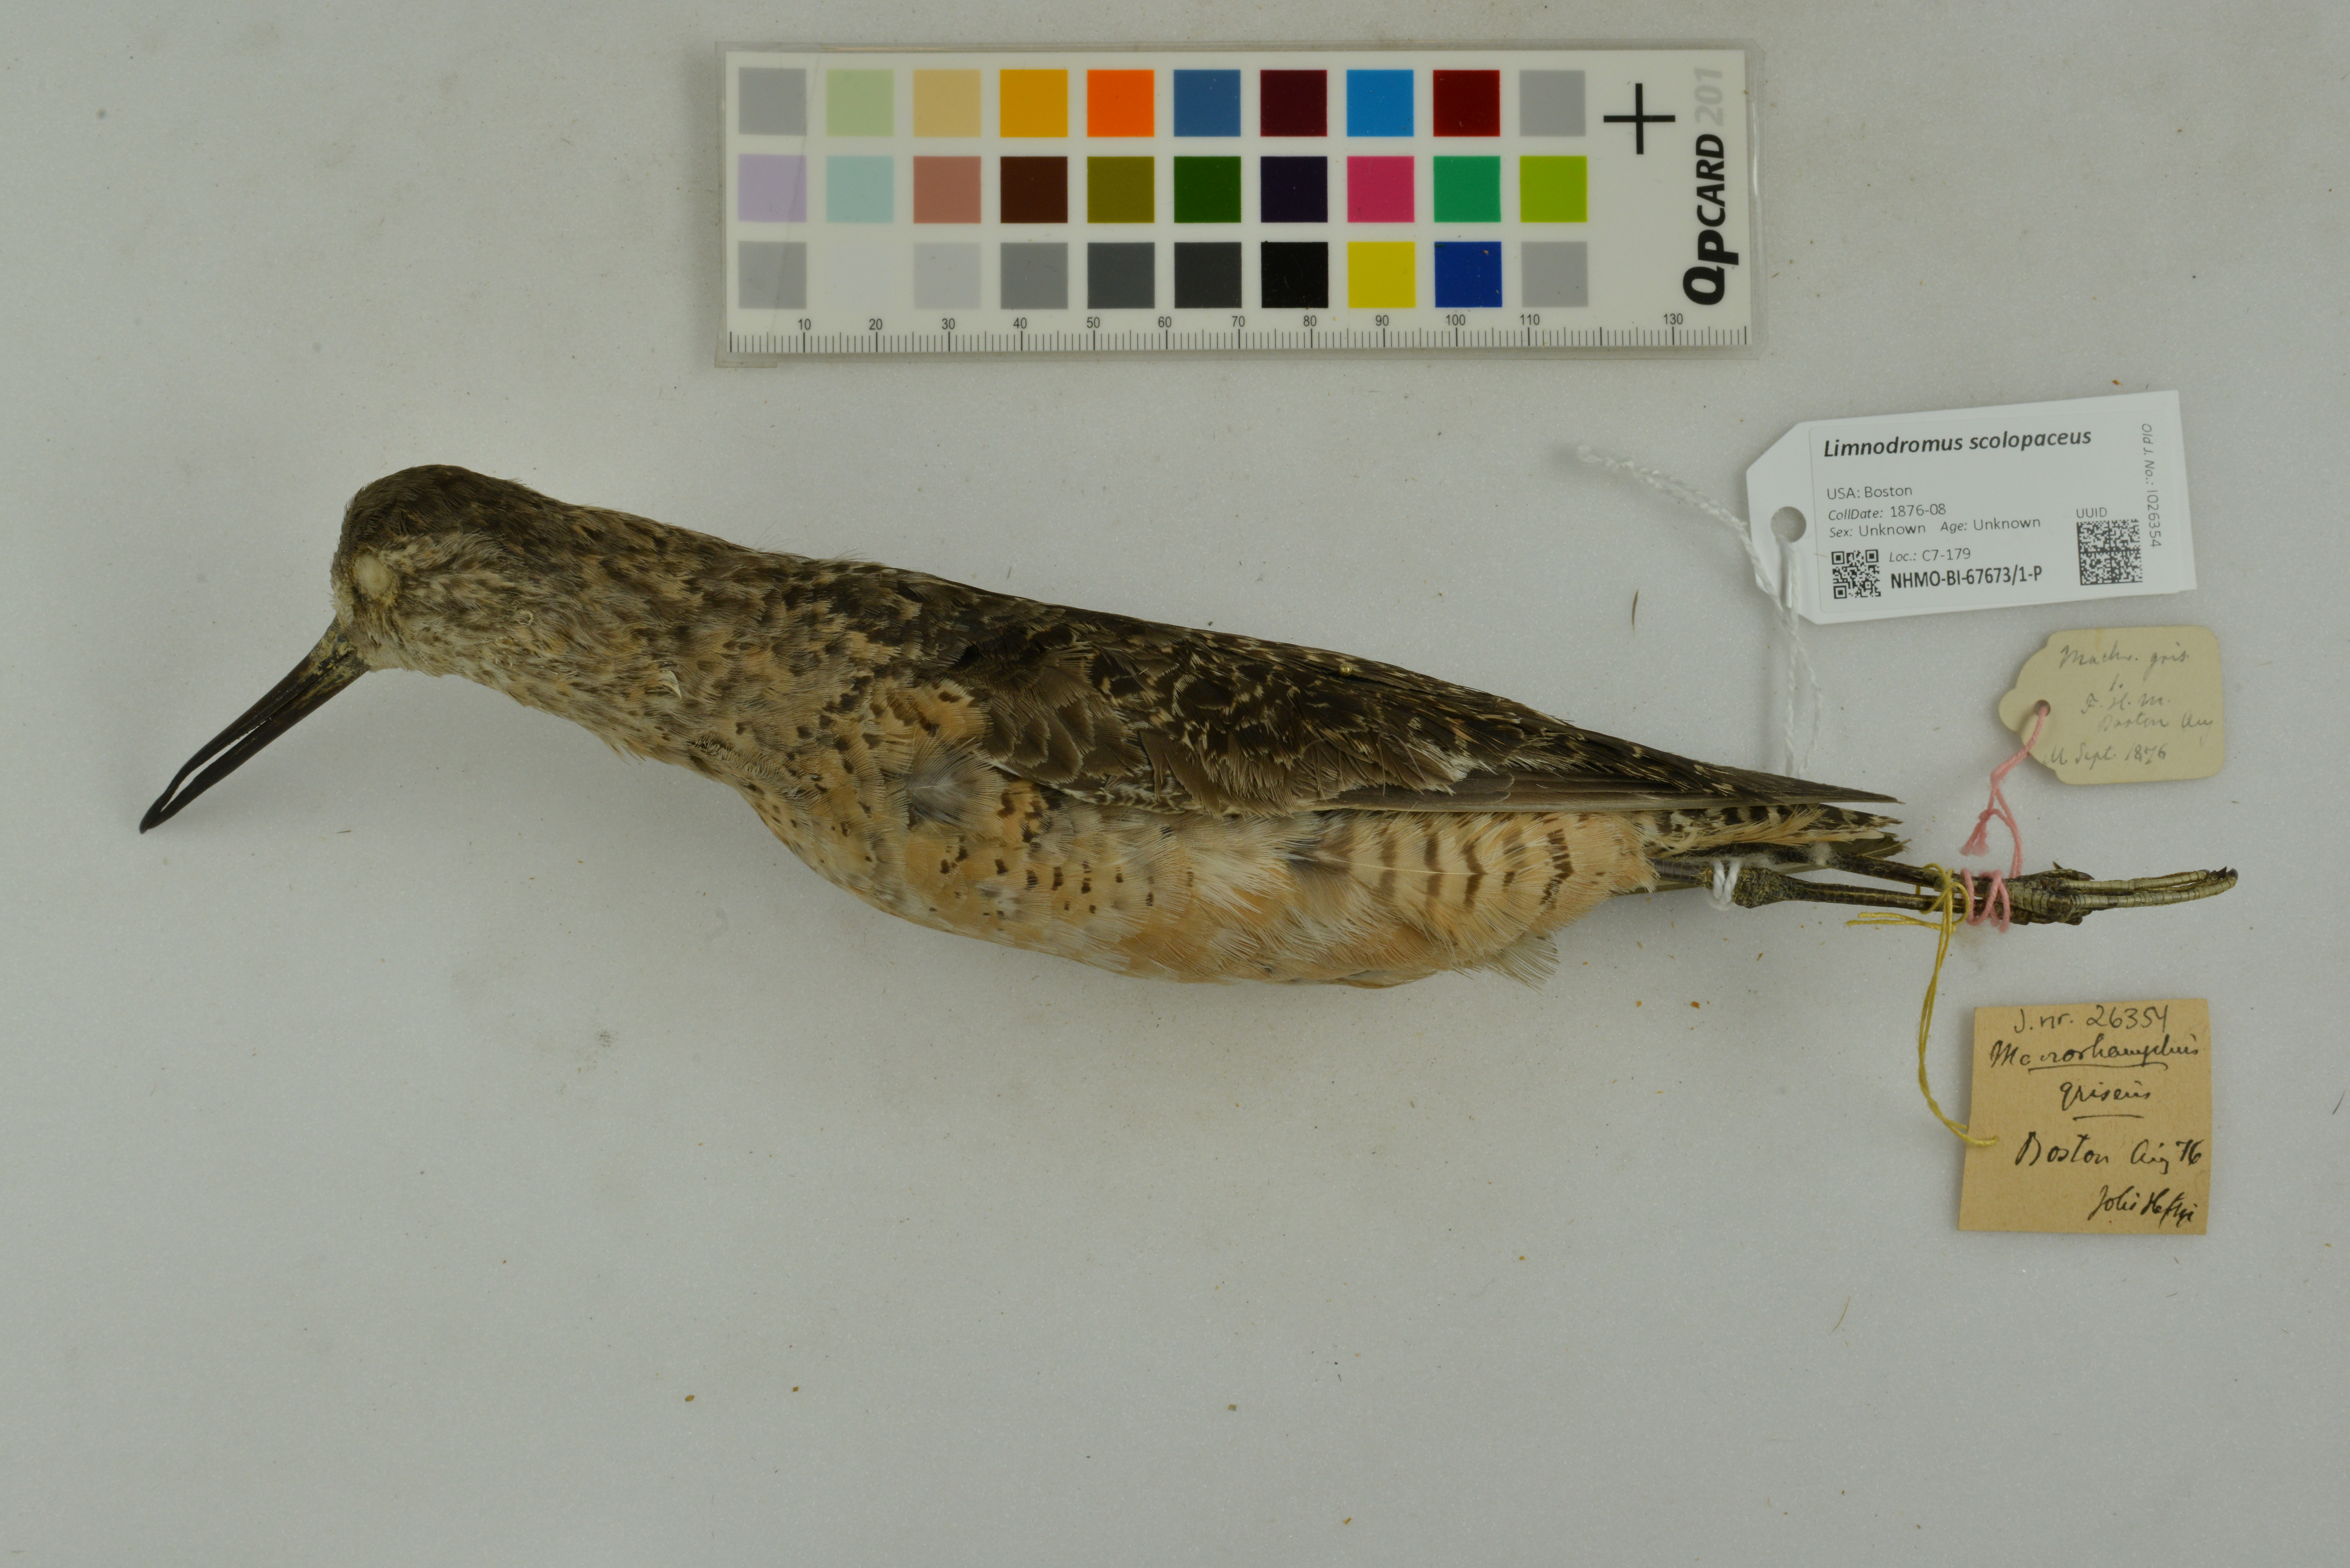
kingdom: Animalia
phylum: Chordata
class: Aves
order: Charadriiformes
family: Scolopacidae
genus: Limnodromus
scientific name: Limnodromus scolopaceus
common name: Long-billed dowitcher
